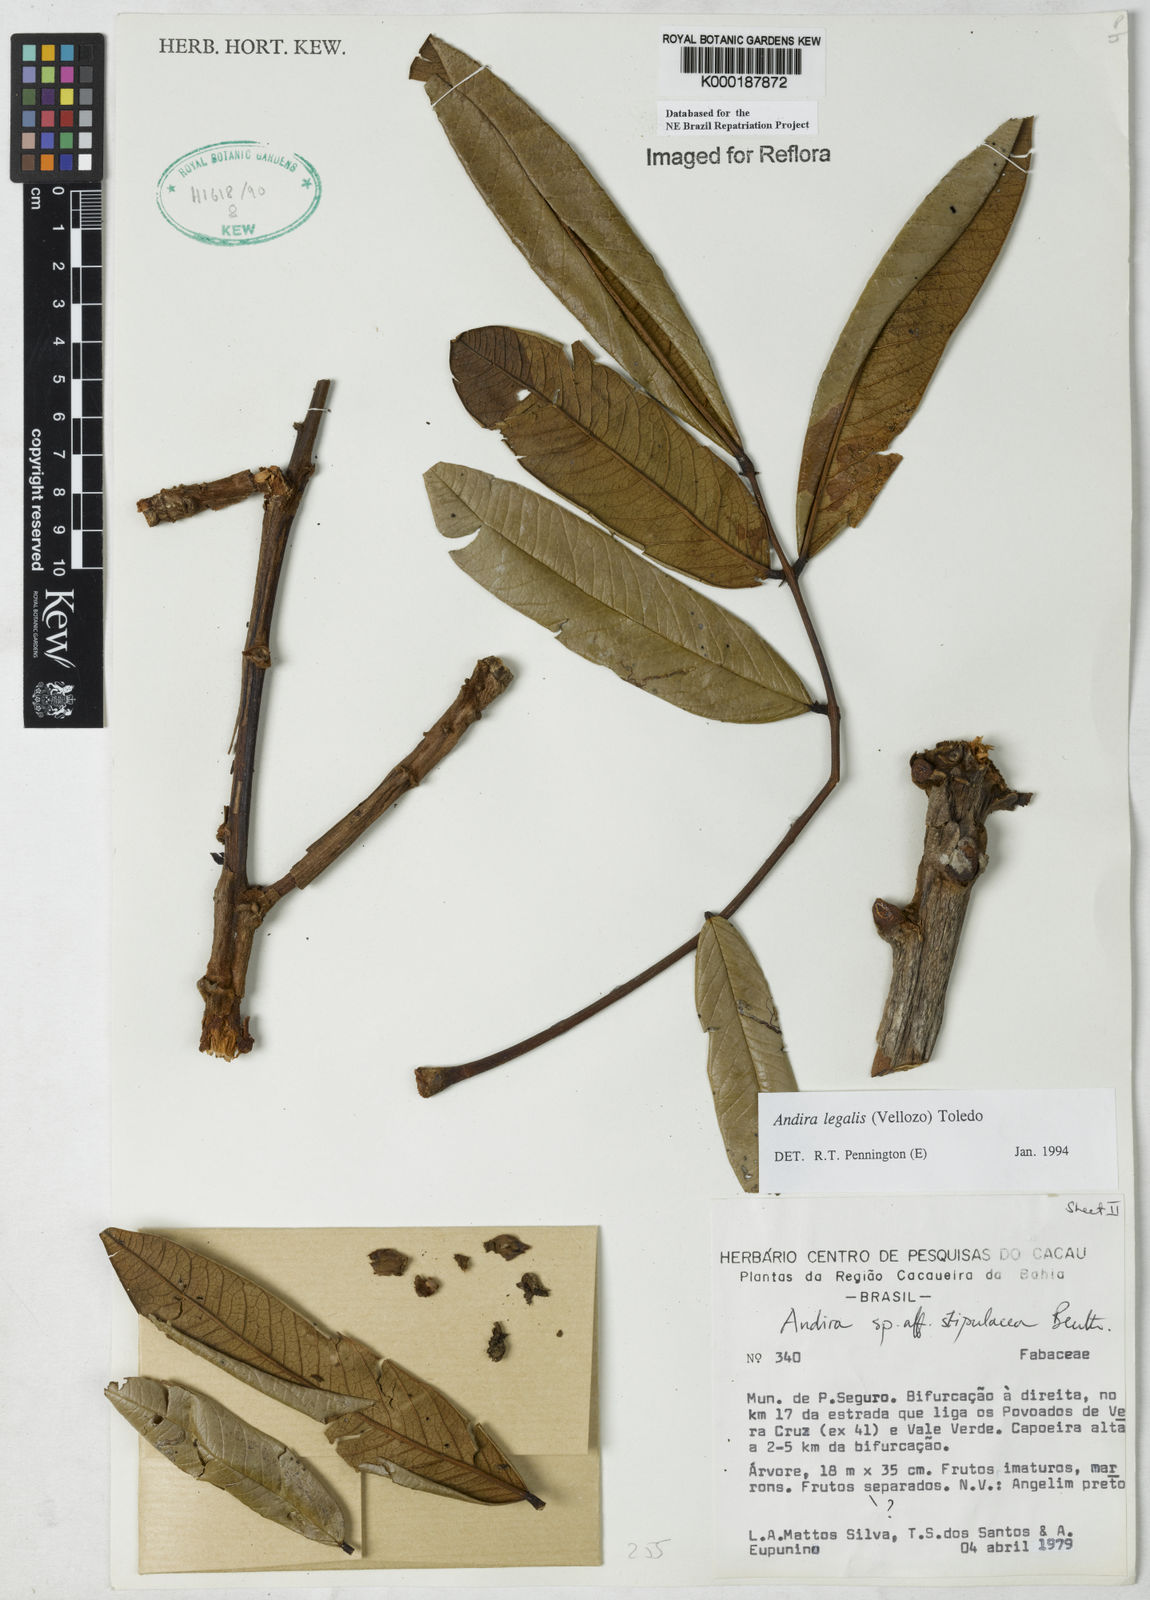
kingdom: Plantae
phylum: Tracheophyta
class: Magnoliopsida
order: Fabales
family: Fabaceae
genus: Andira
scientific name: Andira legalis
